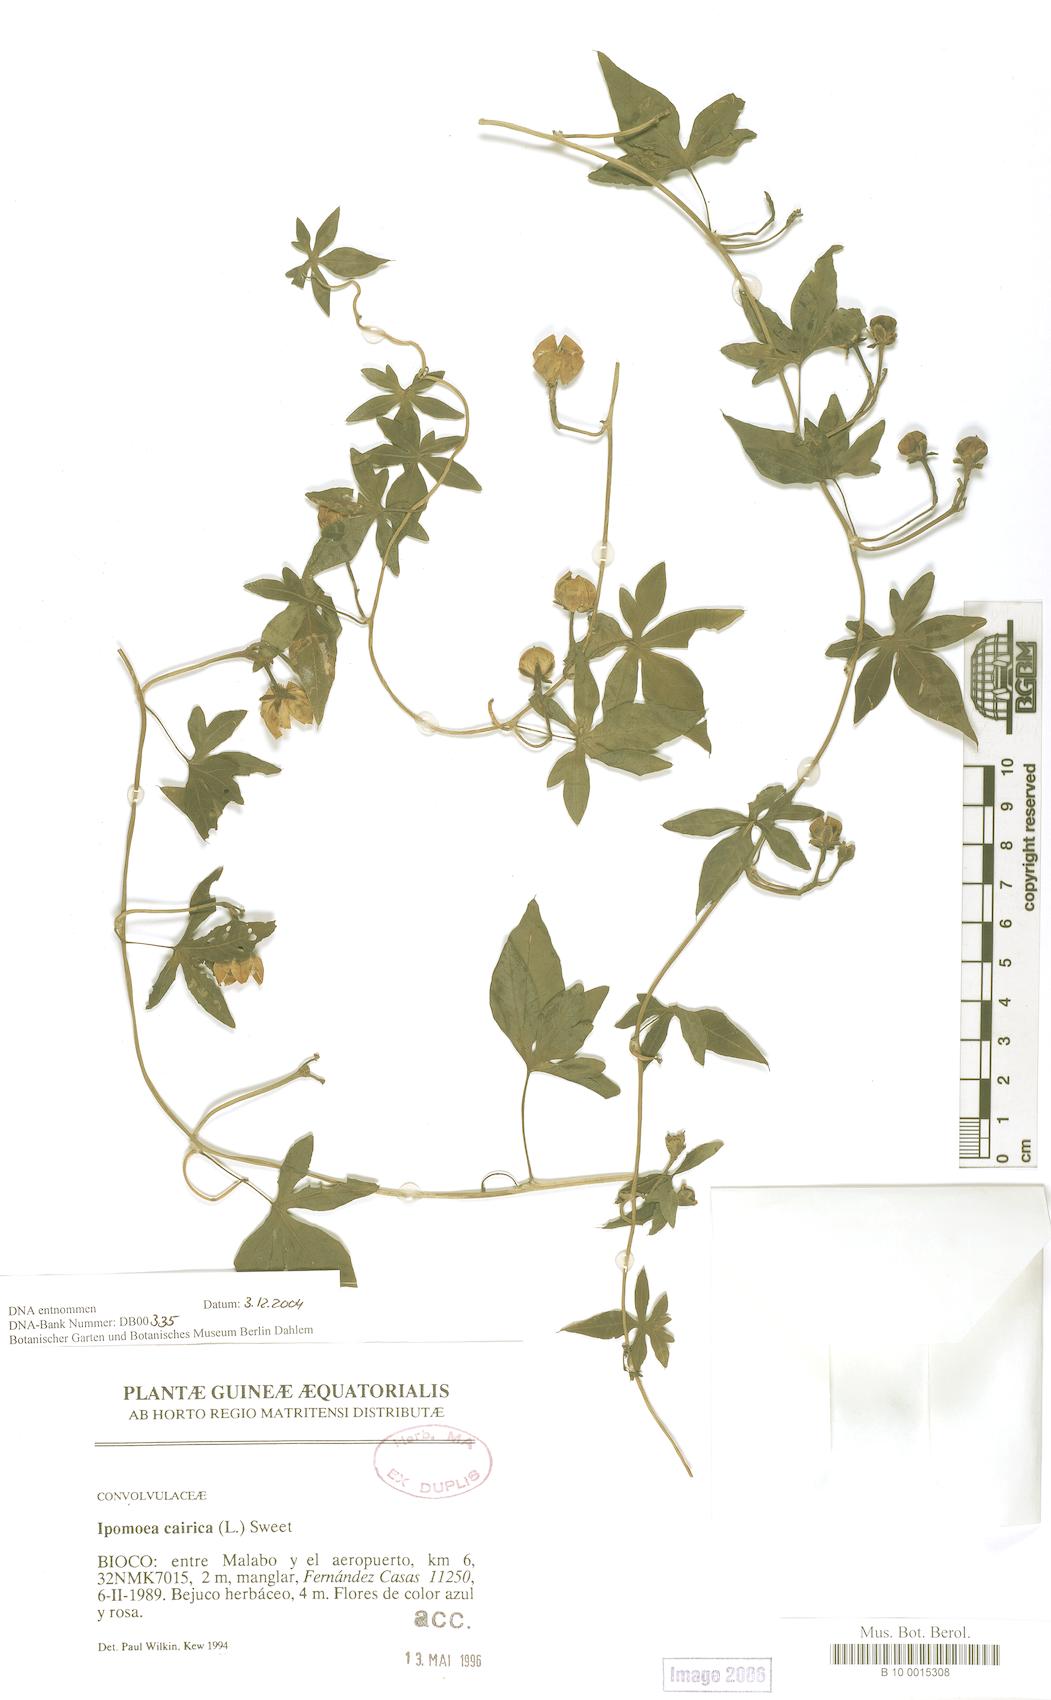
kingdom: Plantae
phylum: Tracheophyta
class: Magnoliopsida
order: Solanales
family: Convolvulaceae
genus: Ipomoea
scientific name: Ipomoea cairica
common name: Mile a minute vine
